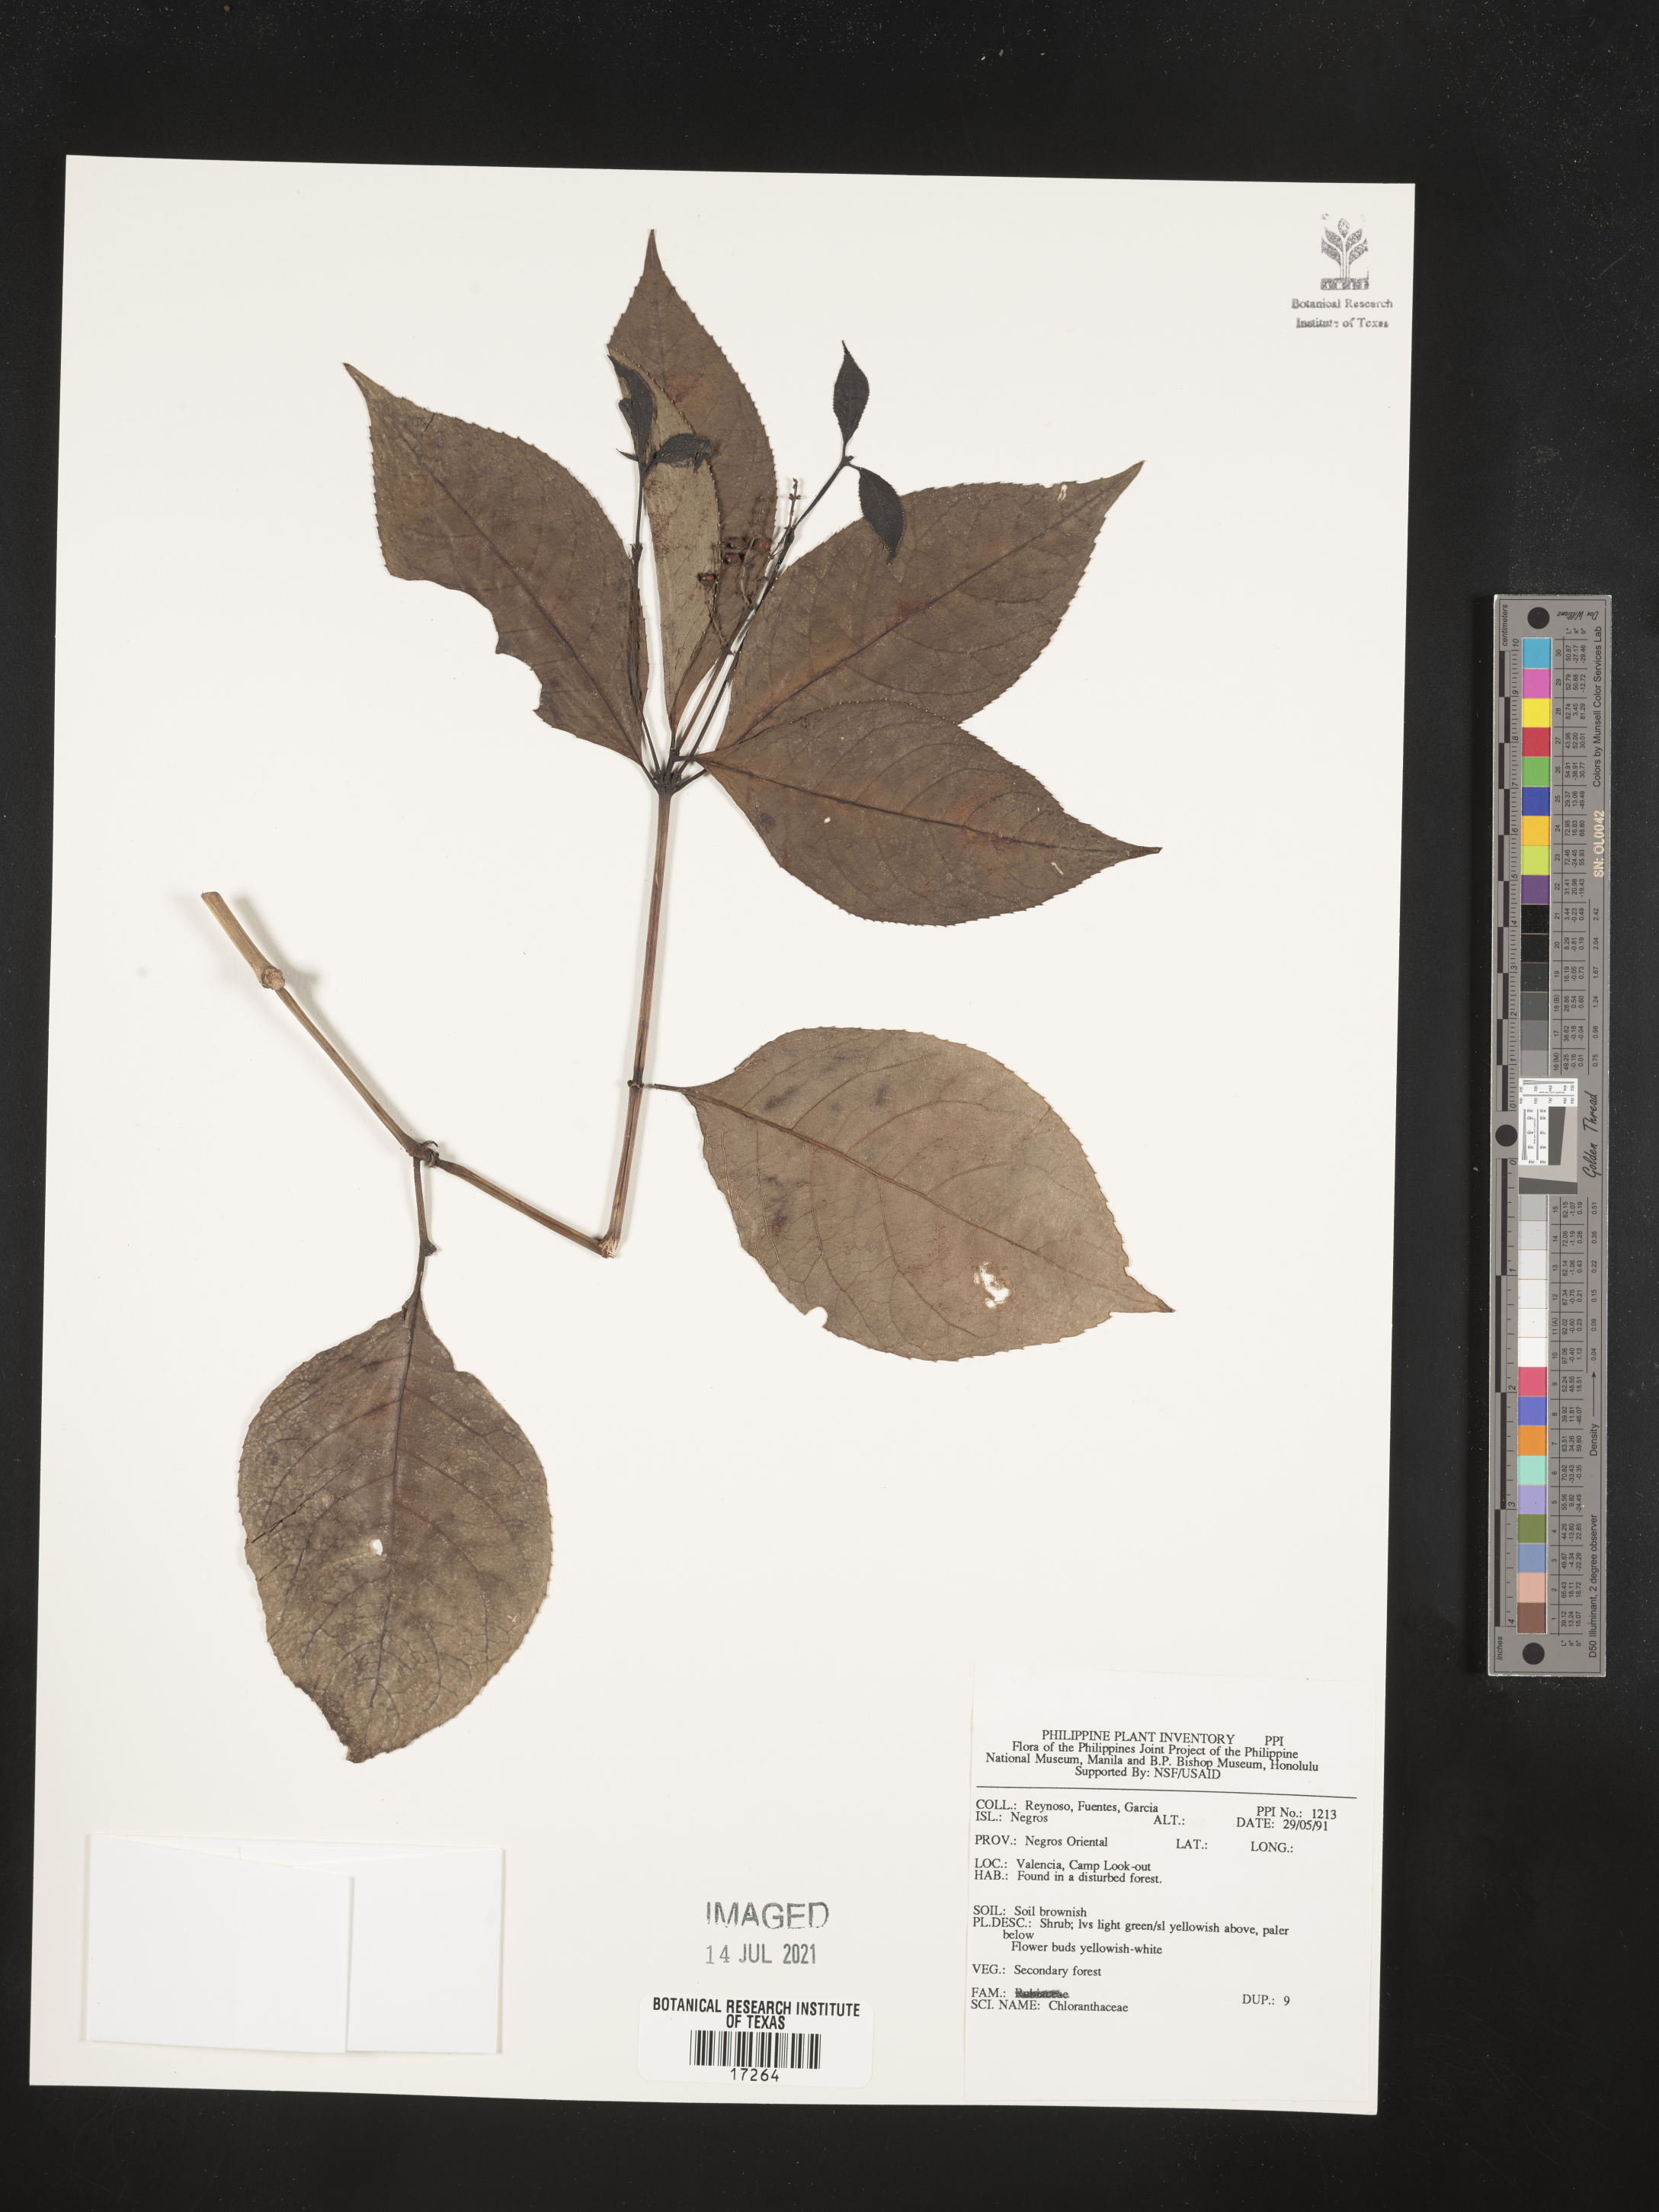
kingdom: Plantae
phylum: Tracheophyta
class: Magnoliopsida
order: Chloranthales
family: Chloranthaceae
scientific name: Chloranthaceae
